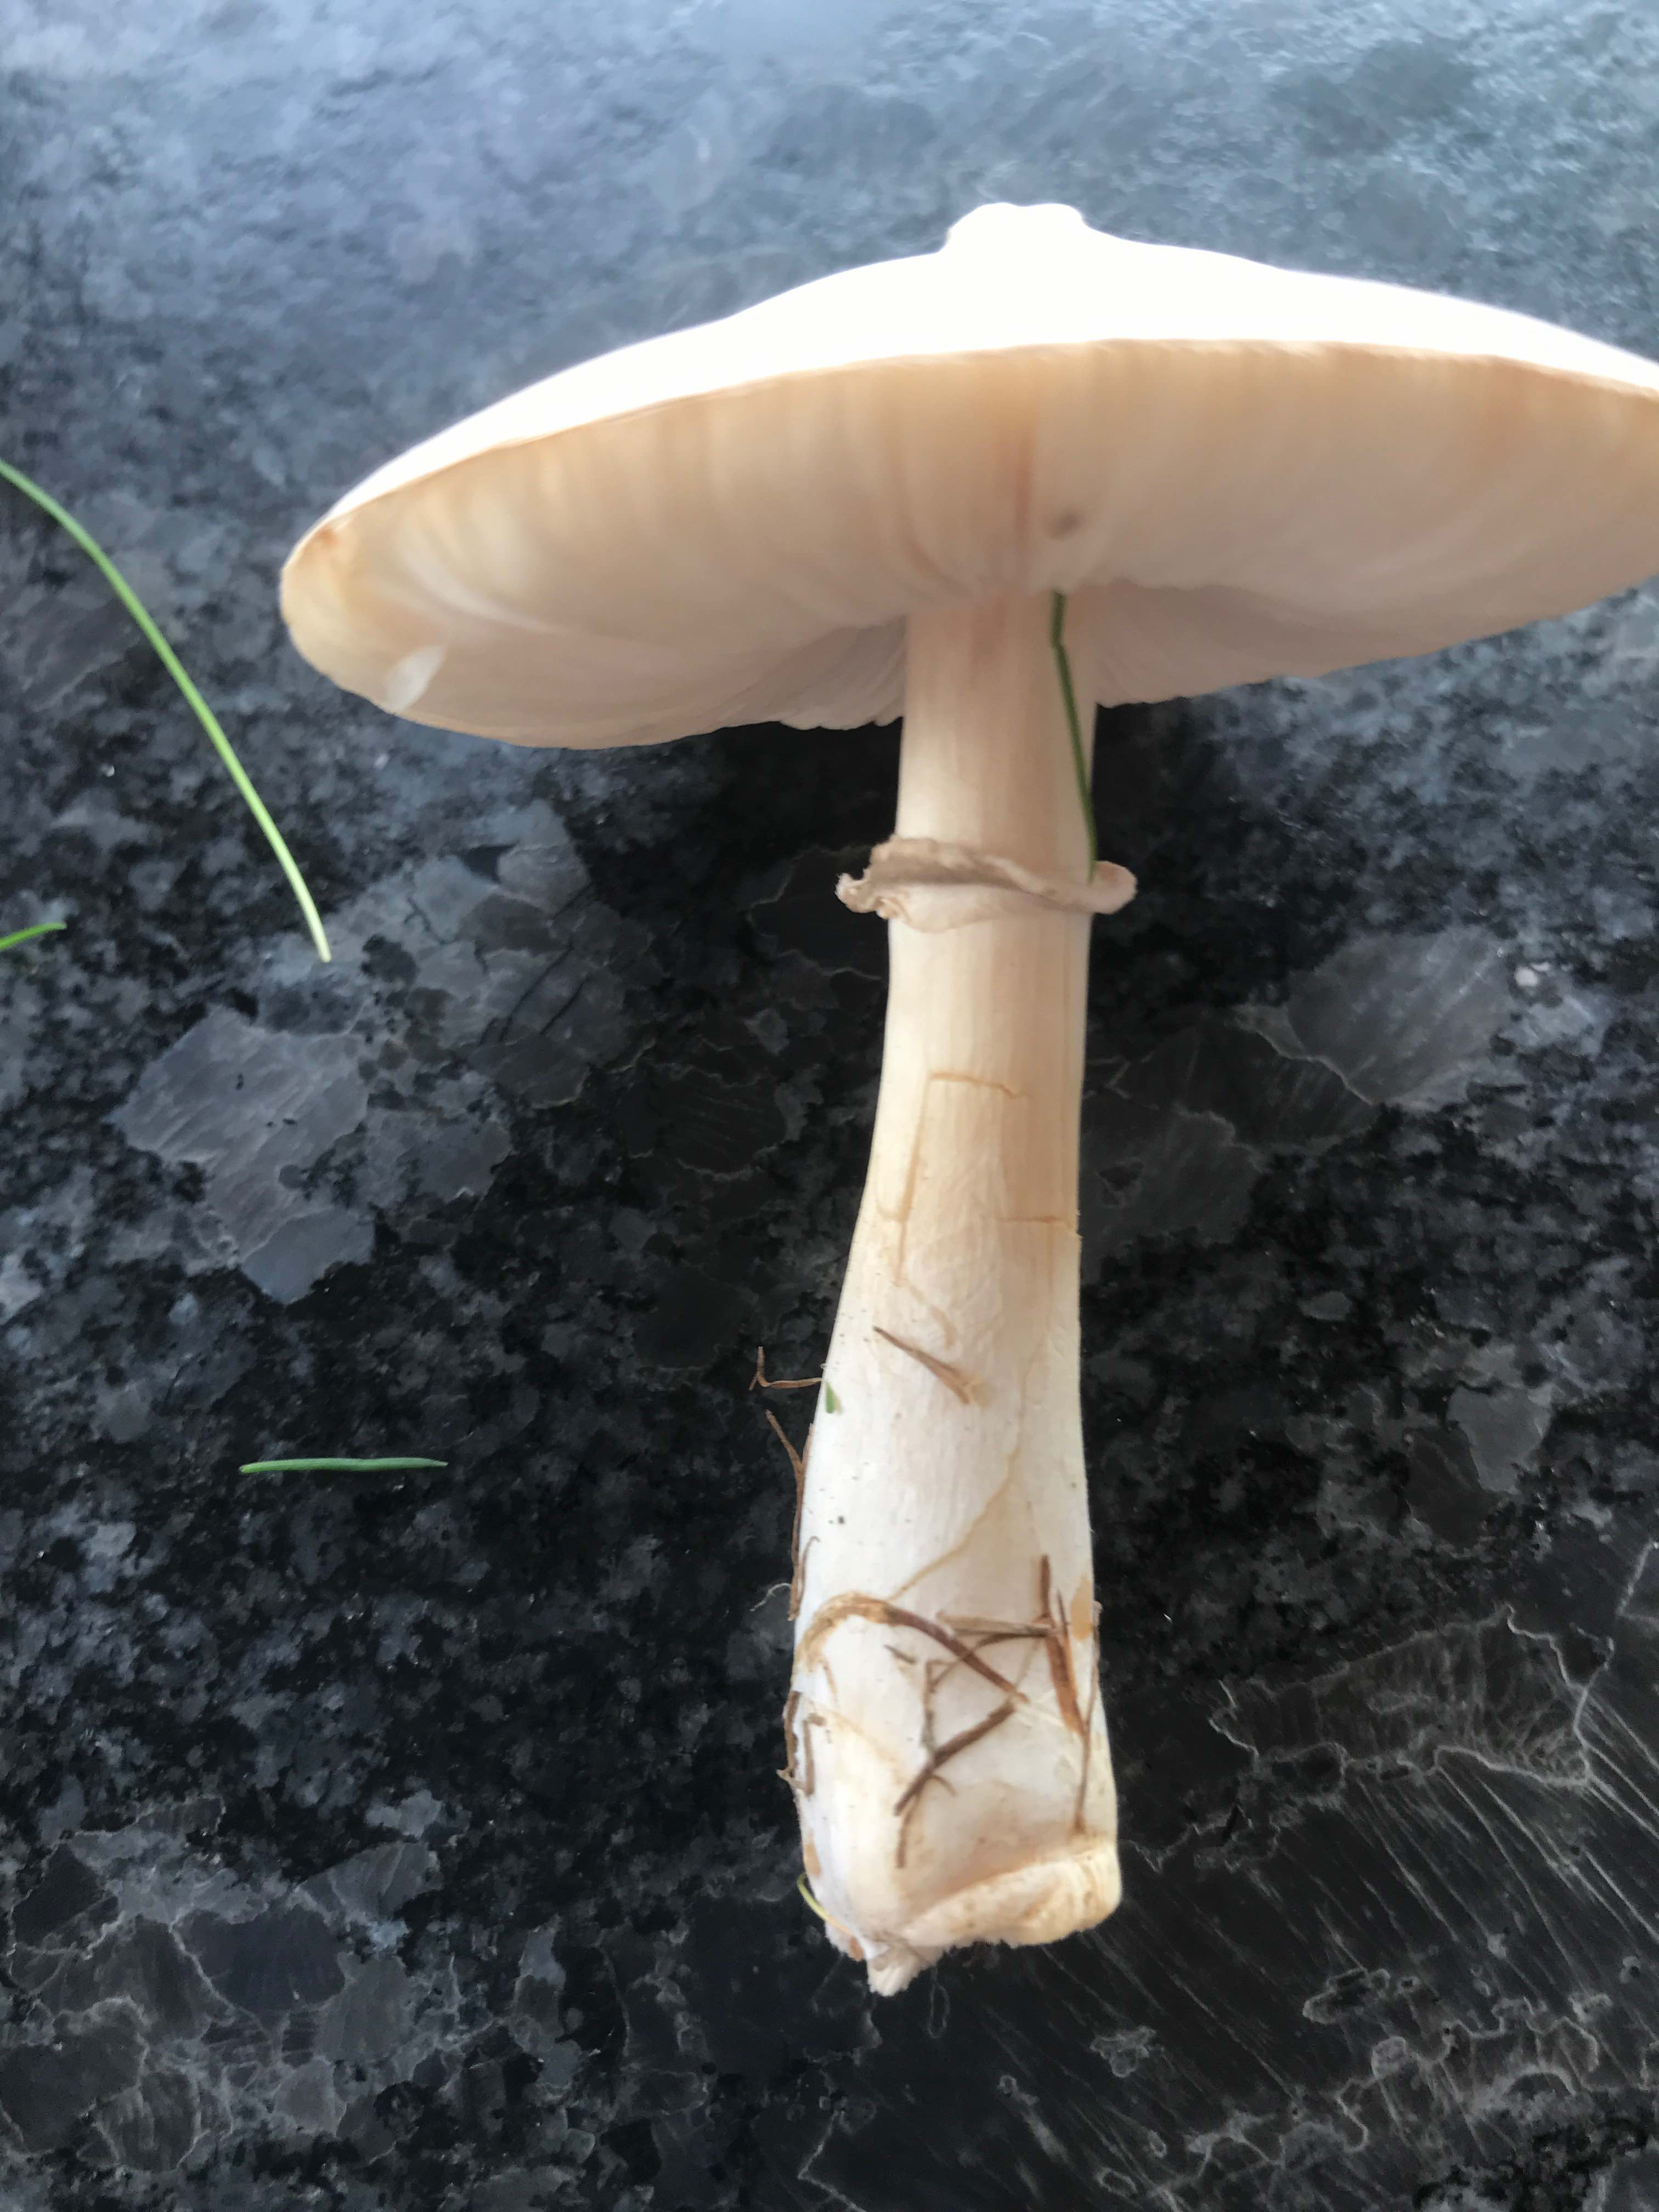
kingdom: Fungi
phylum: Basidiomycota
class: Agaricomycetes
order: Agaricales
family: Agaricaceae
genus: Leucoagaricus
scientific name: Leucoagaricus leucothites
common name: rosabladet silkehat
